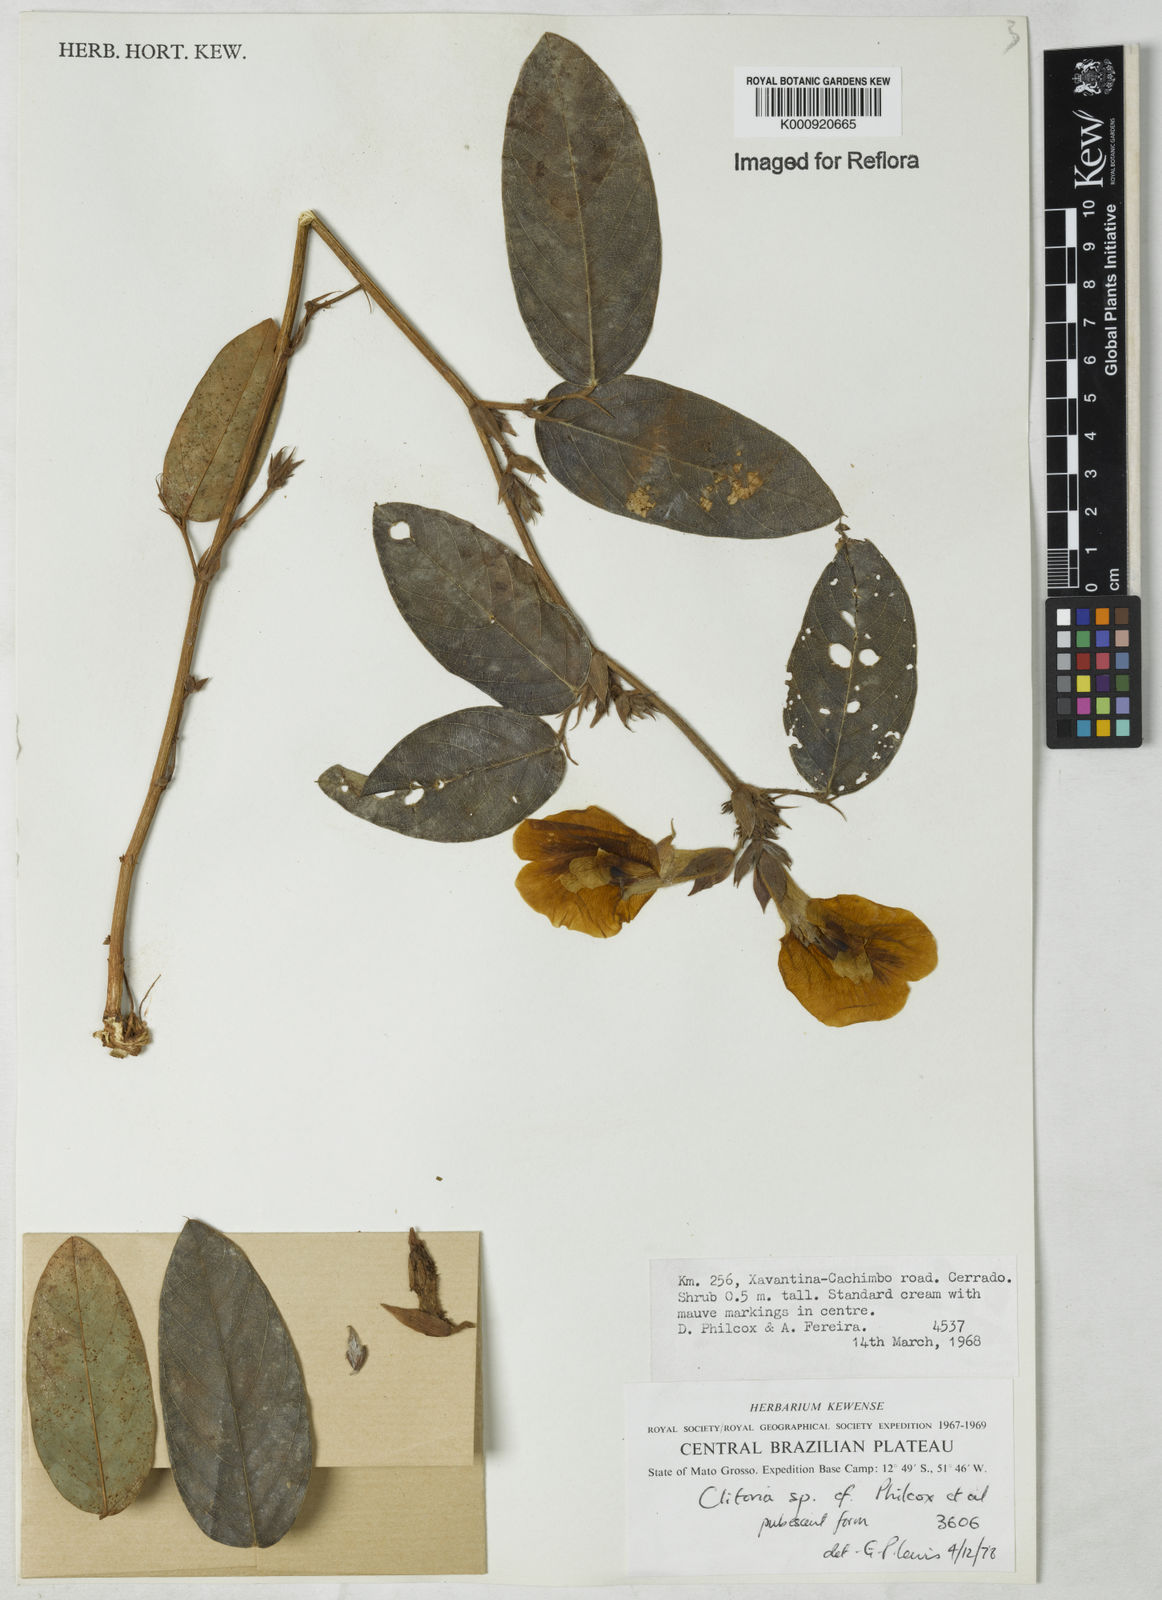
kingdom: Plantae
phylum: Tracheophyta
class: Magnoliopsida
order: Fabales
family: Fabaceae
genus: Clitoria
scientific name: Clitoria
